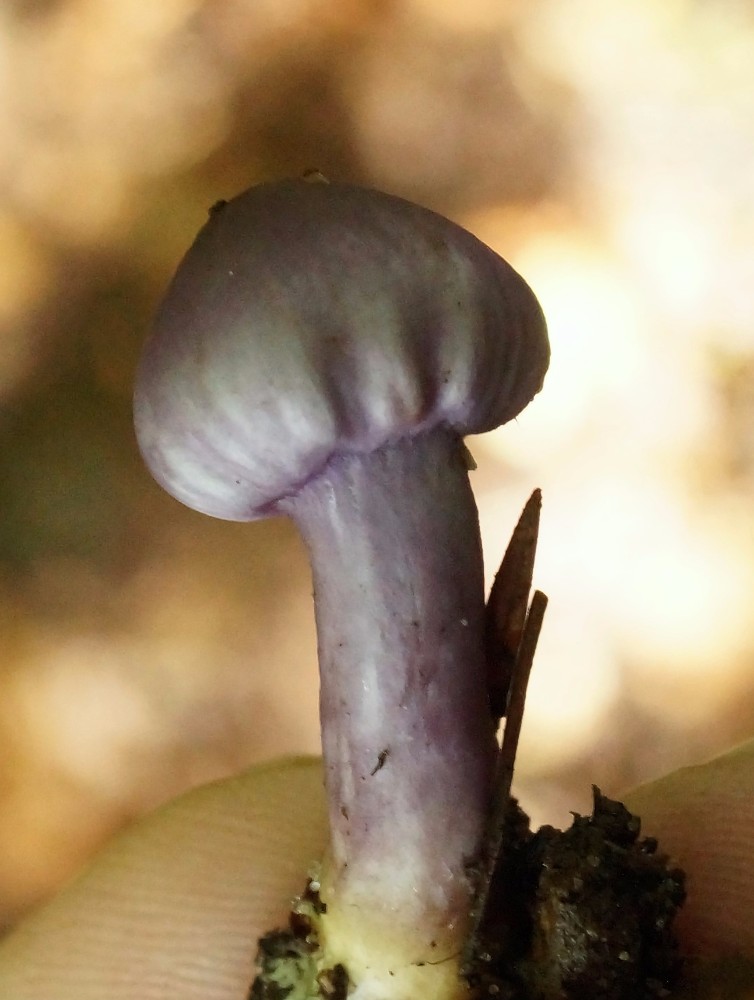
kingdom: Fungi
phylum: Basidiomycota
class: Agaricomycetes
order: Agaricales
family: Inocybaceae
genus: Inocybe
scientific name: Inocybe geophylla
